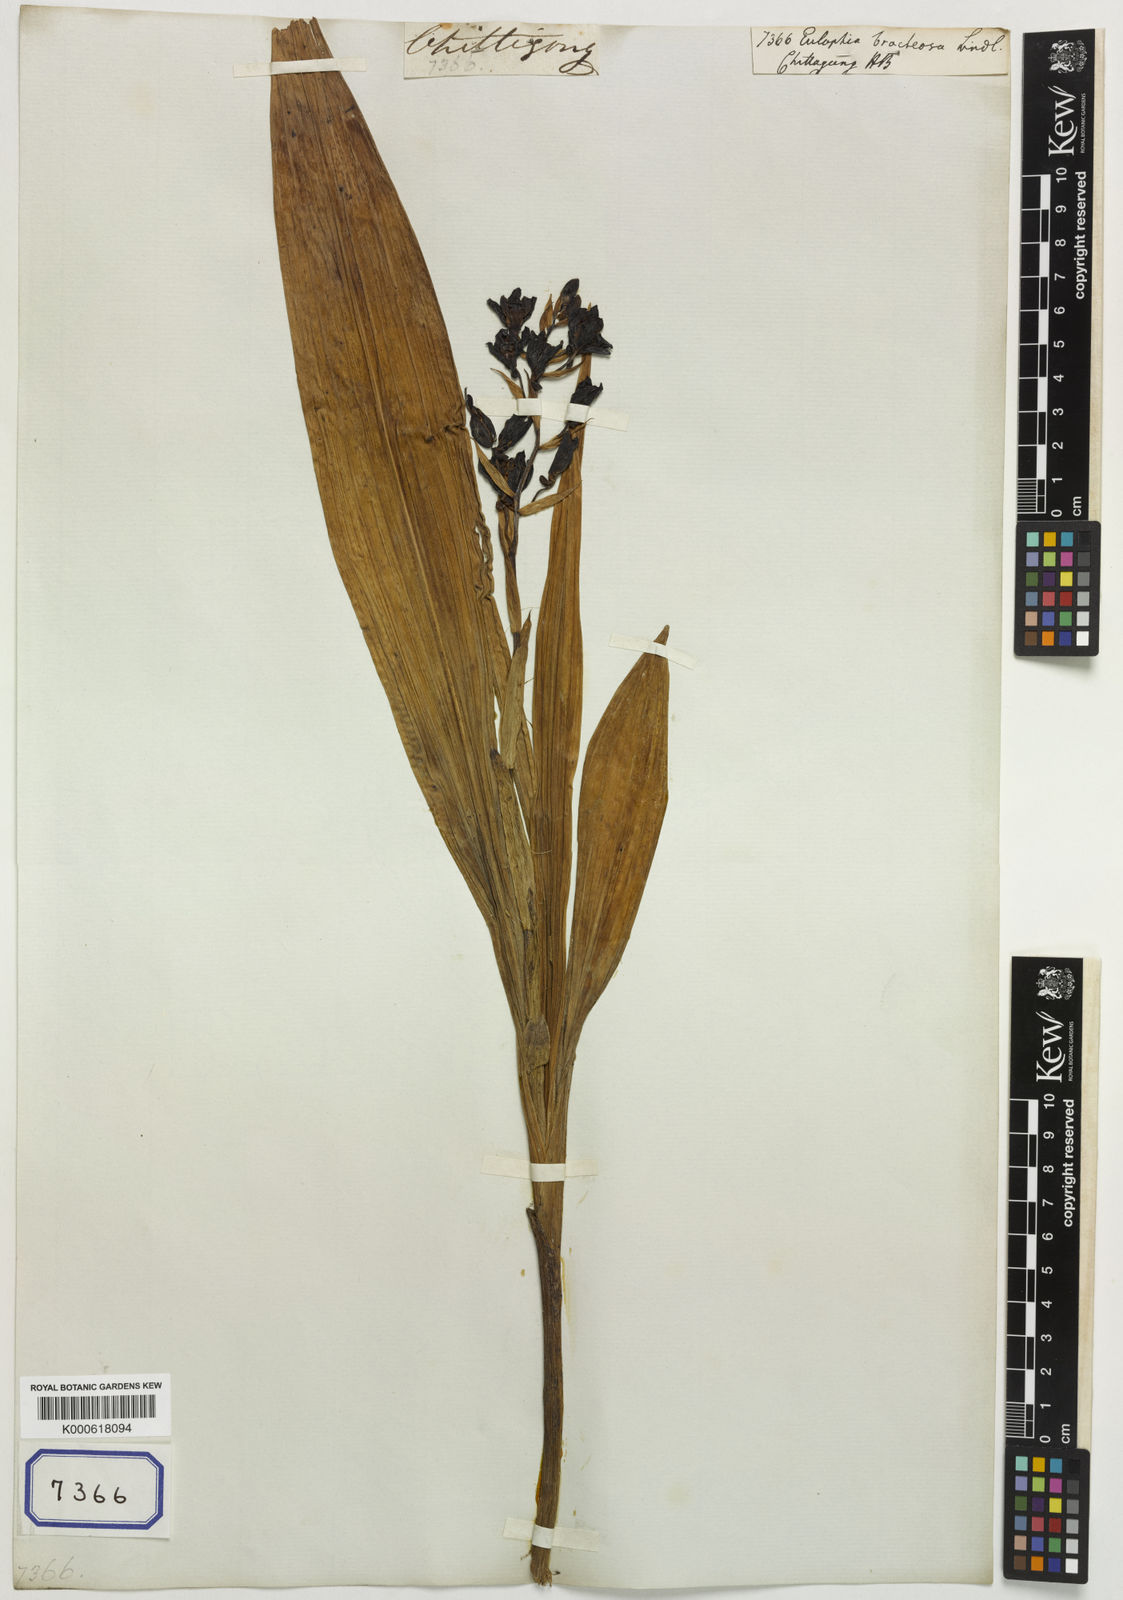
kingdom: Plantae
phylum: Tracheophyta
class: Liliopsida
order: Asparagales
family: Orchidaceae
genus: Eulophia
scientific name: Eulophia bracteosa
